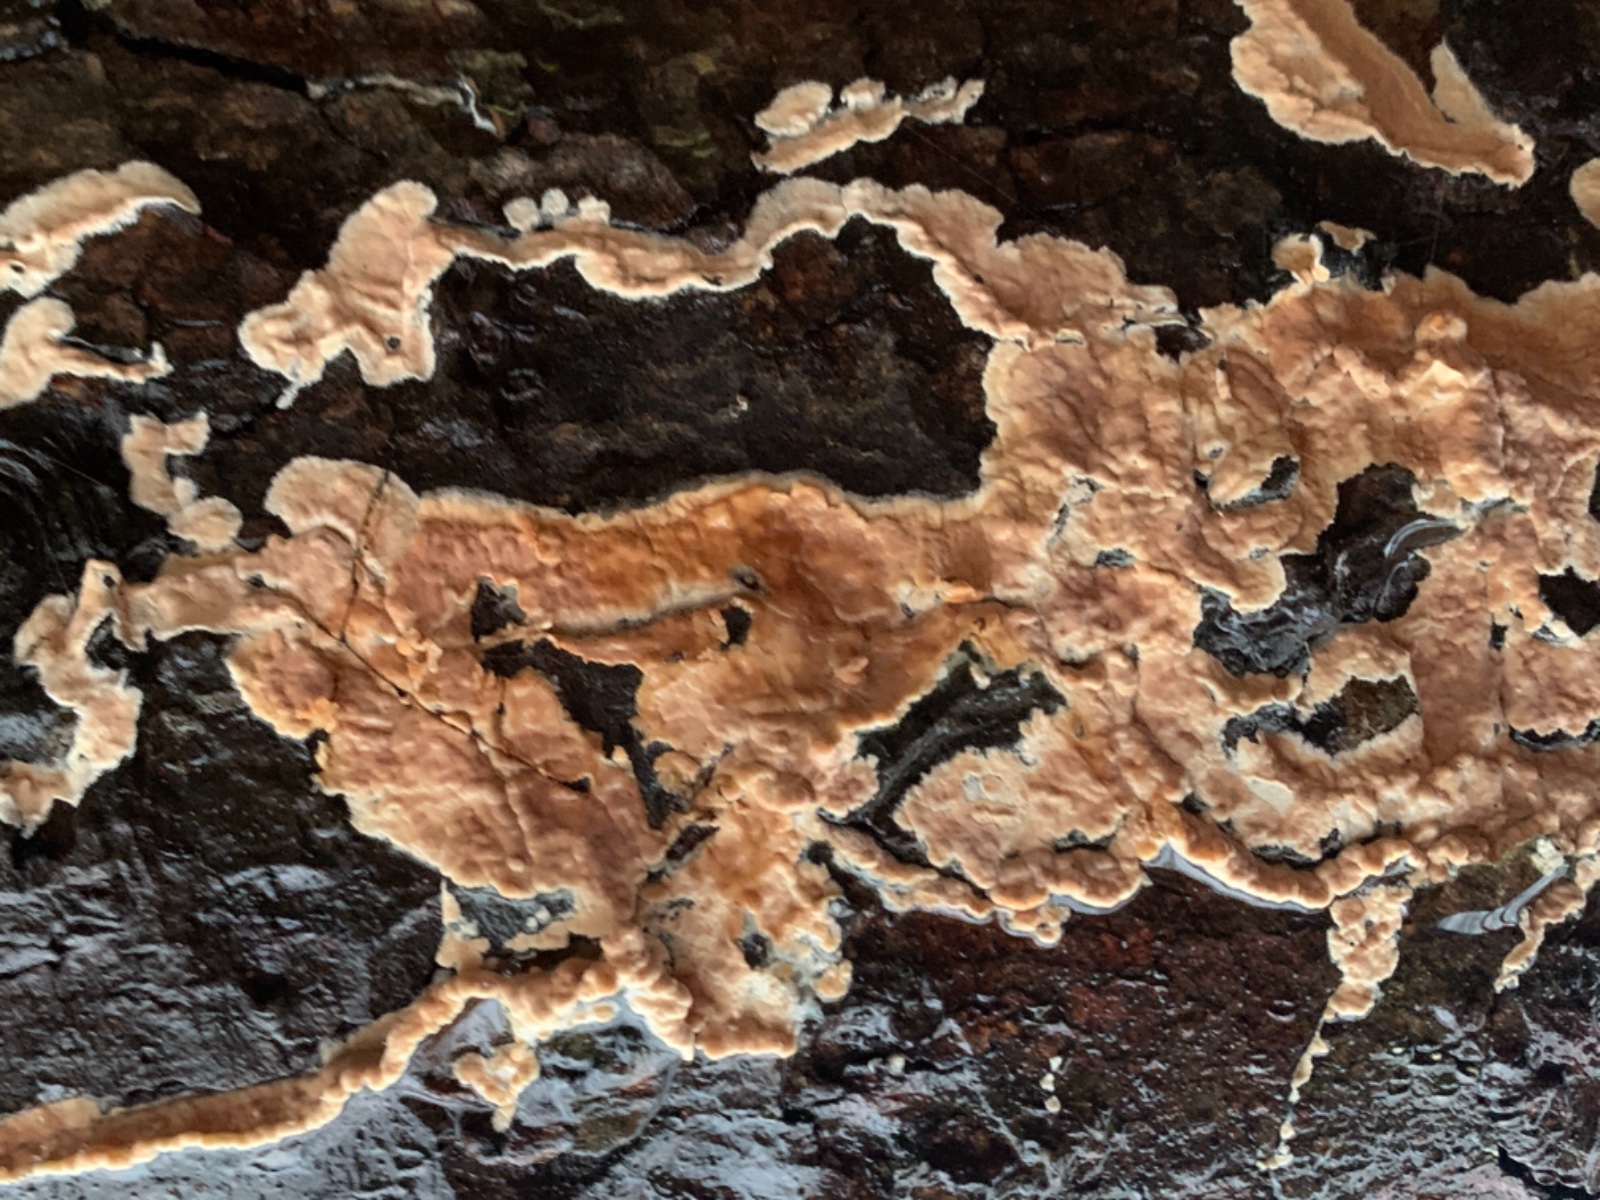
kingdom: Fungi
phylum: Basidiomycota
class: Agaricomycetes
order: Russulales
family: Stereaceae
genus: Stereum
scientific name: Stereum rugosum
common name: rynket lædersvamp
